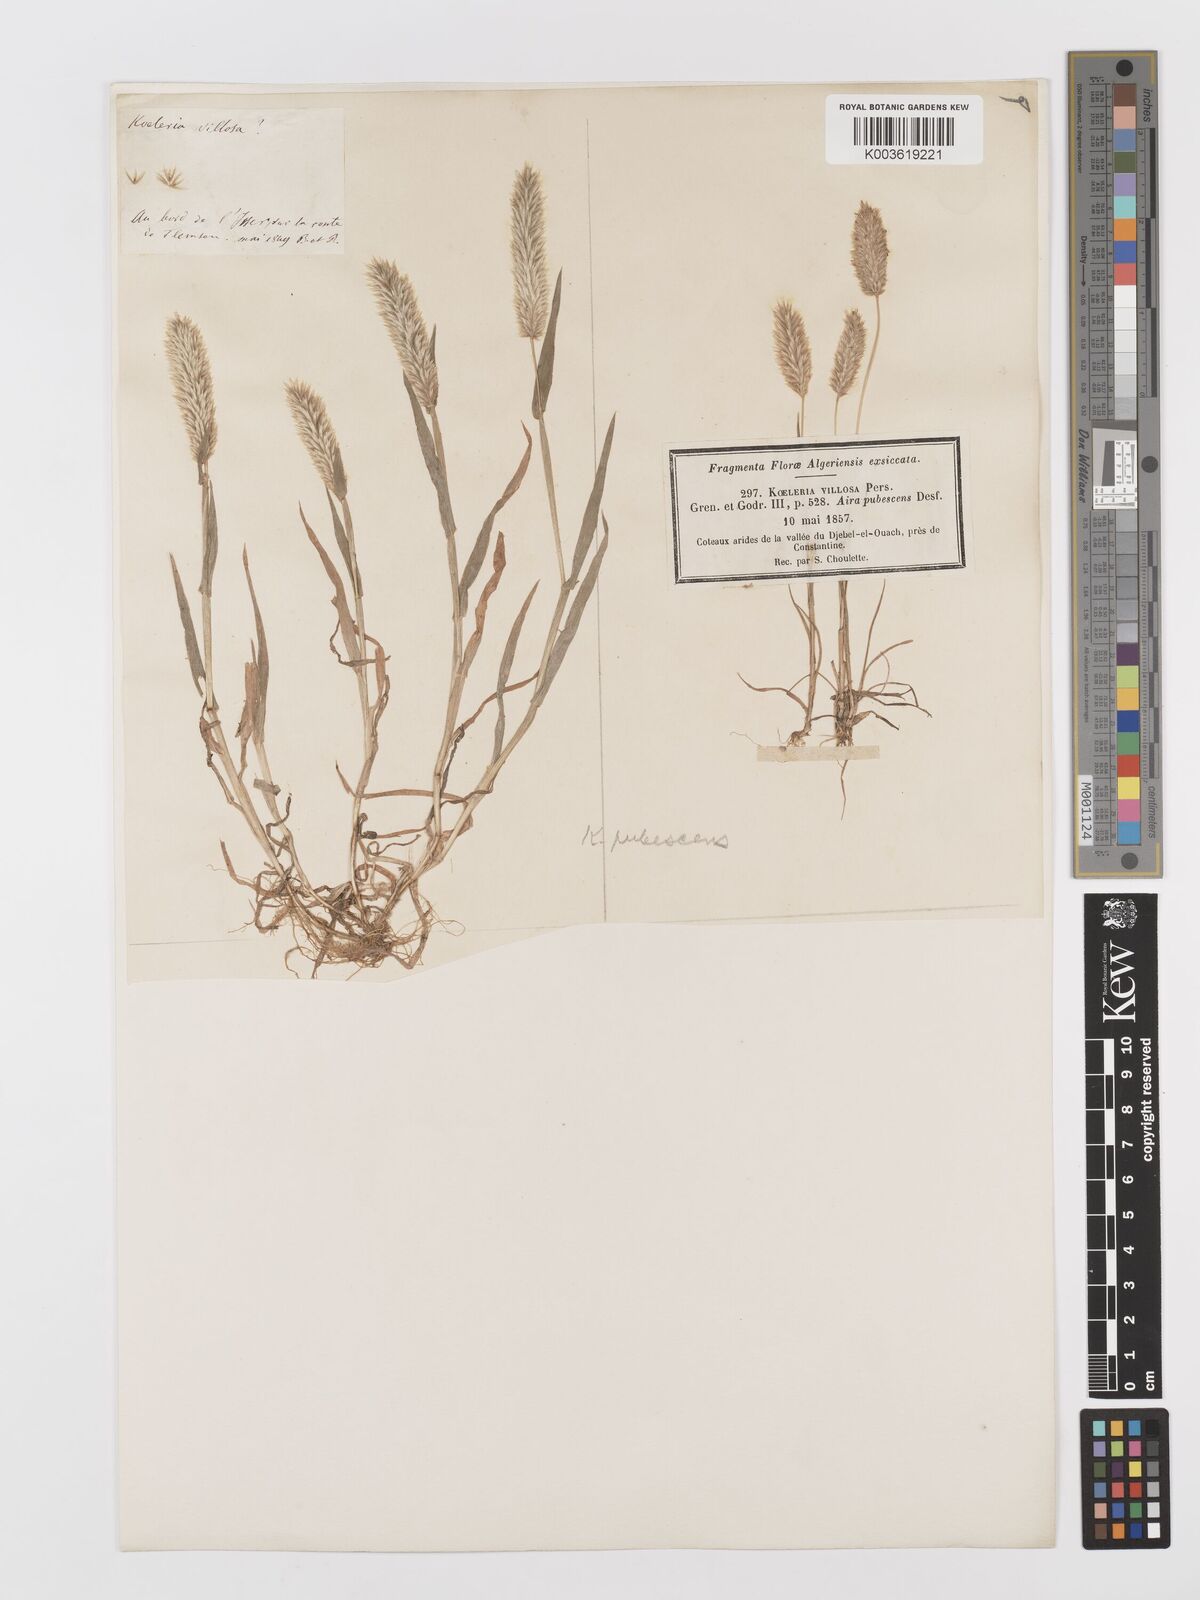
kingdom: Plantae
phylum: Tracheophyta
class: Liliopsida
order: Poales
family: Poaceae
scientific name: Poaceae
